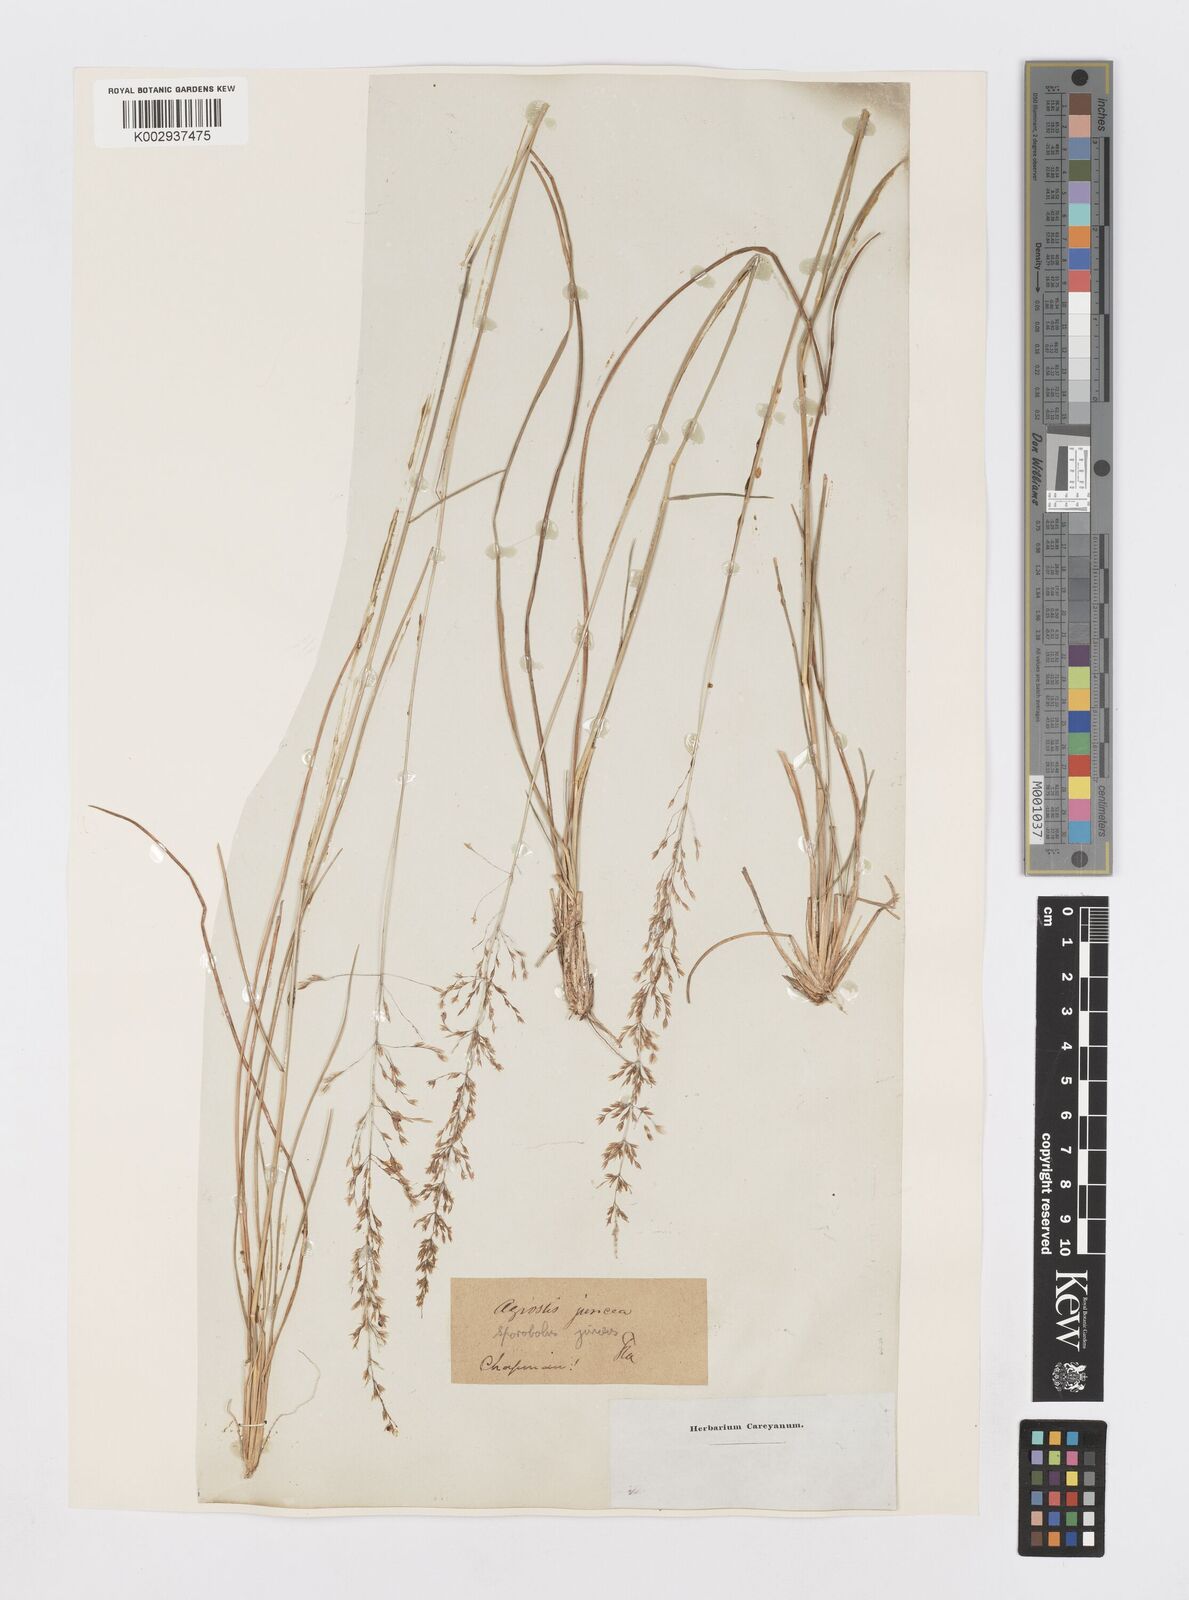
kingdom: Plantae
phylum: Tracheophyta
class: Liliopsida
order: Poales
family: Poaceae
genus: Sporobolus
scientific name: Sporobolus junceus
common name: Lizard grass
